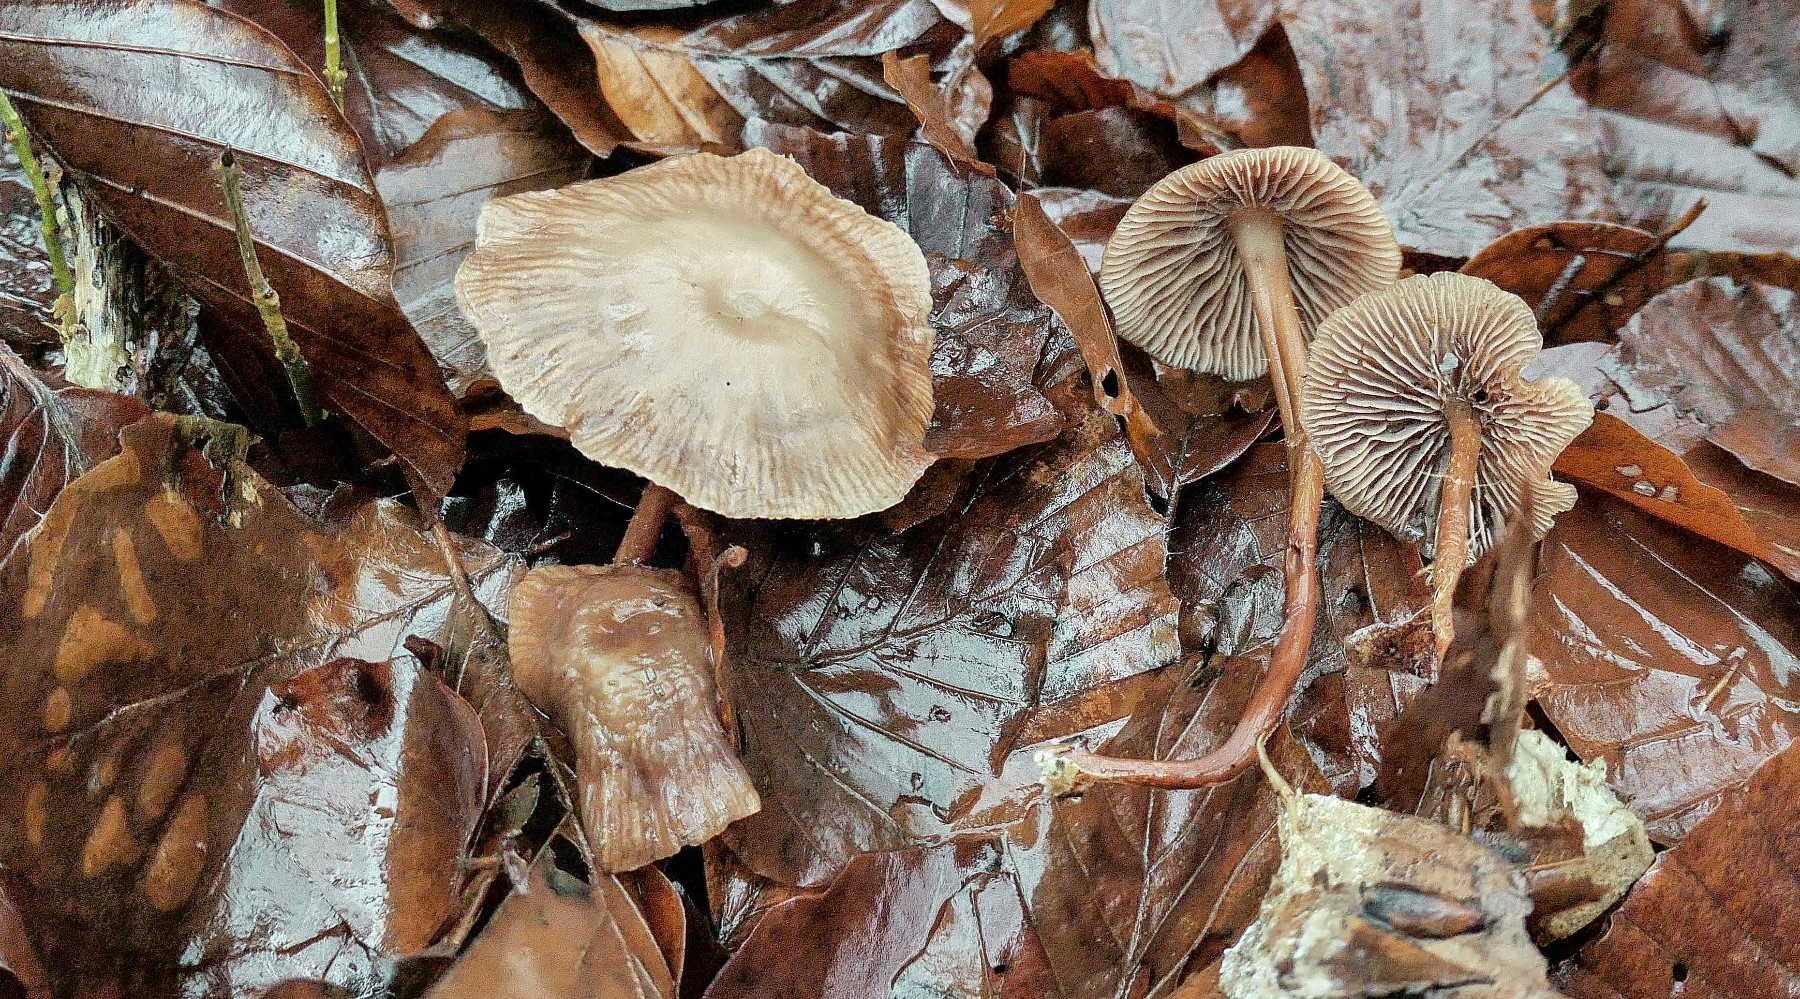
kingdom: Fungi
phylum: Basidiomycota
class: Agaricomycetes
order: Agaricales
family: Omphalotaceae
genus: Gymnopus
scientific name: Gymnopus fagiphilus
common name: bøgeløv-fladhat
